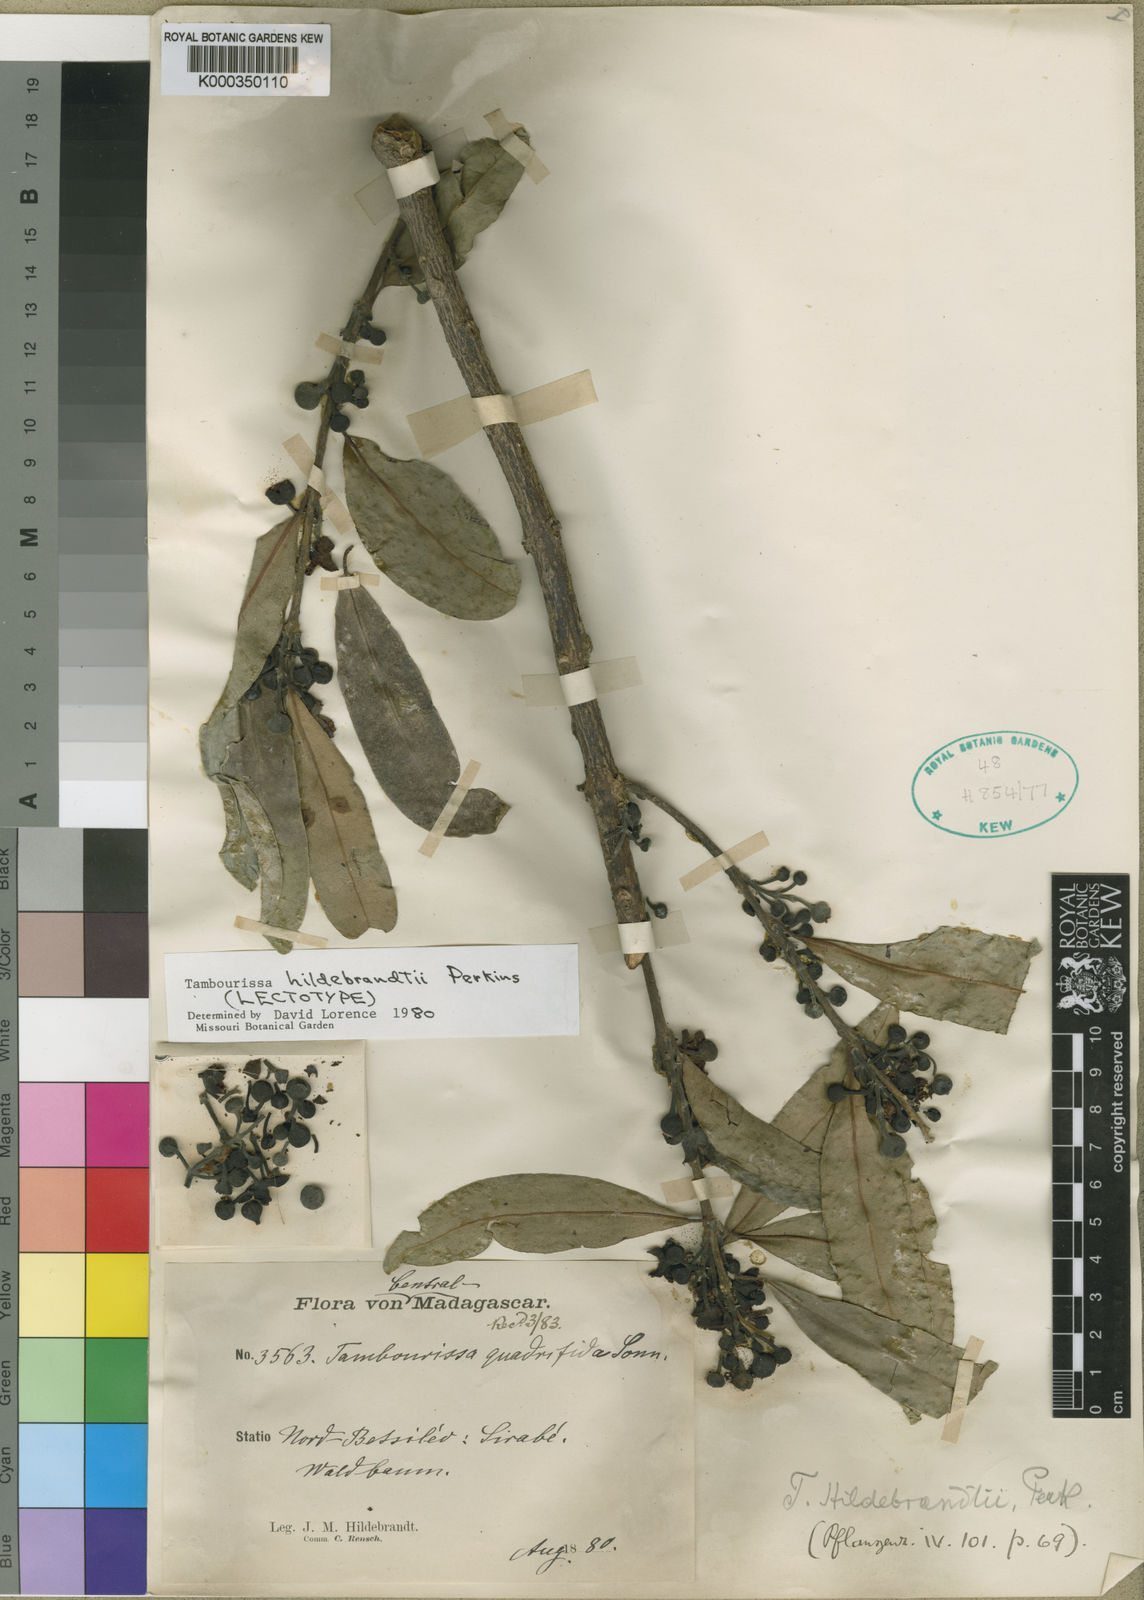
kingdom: Plantae
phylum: Tracheophyta
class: Magnoliopsida
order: Laurales
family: Monimiaceae
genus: Tambourissa
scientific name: Tambourissa hildebrandtii
